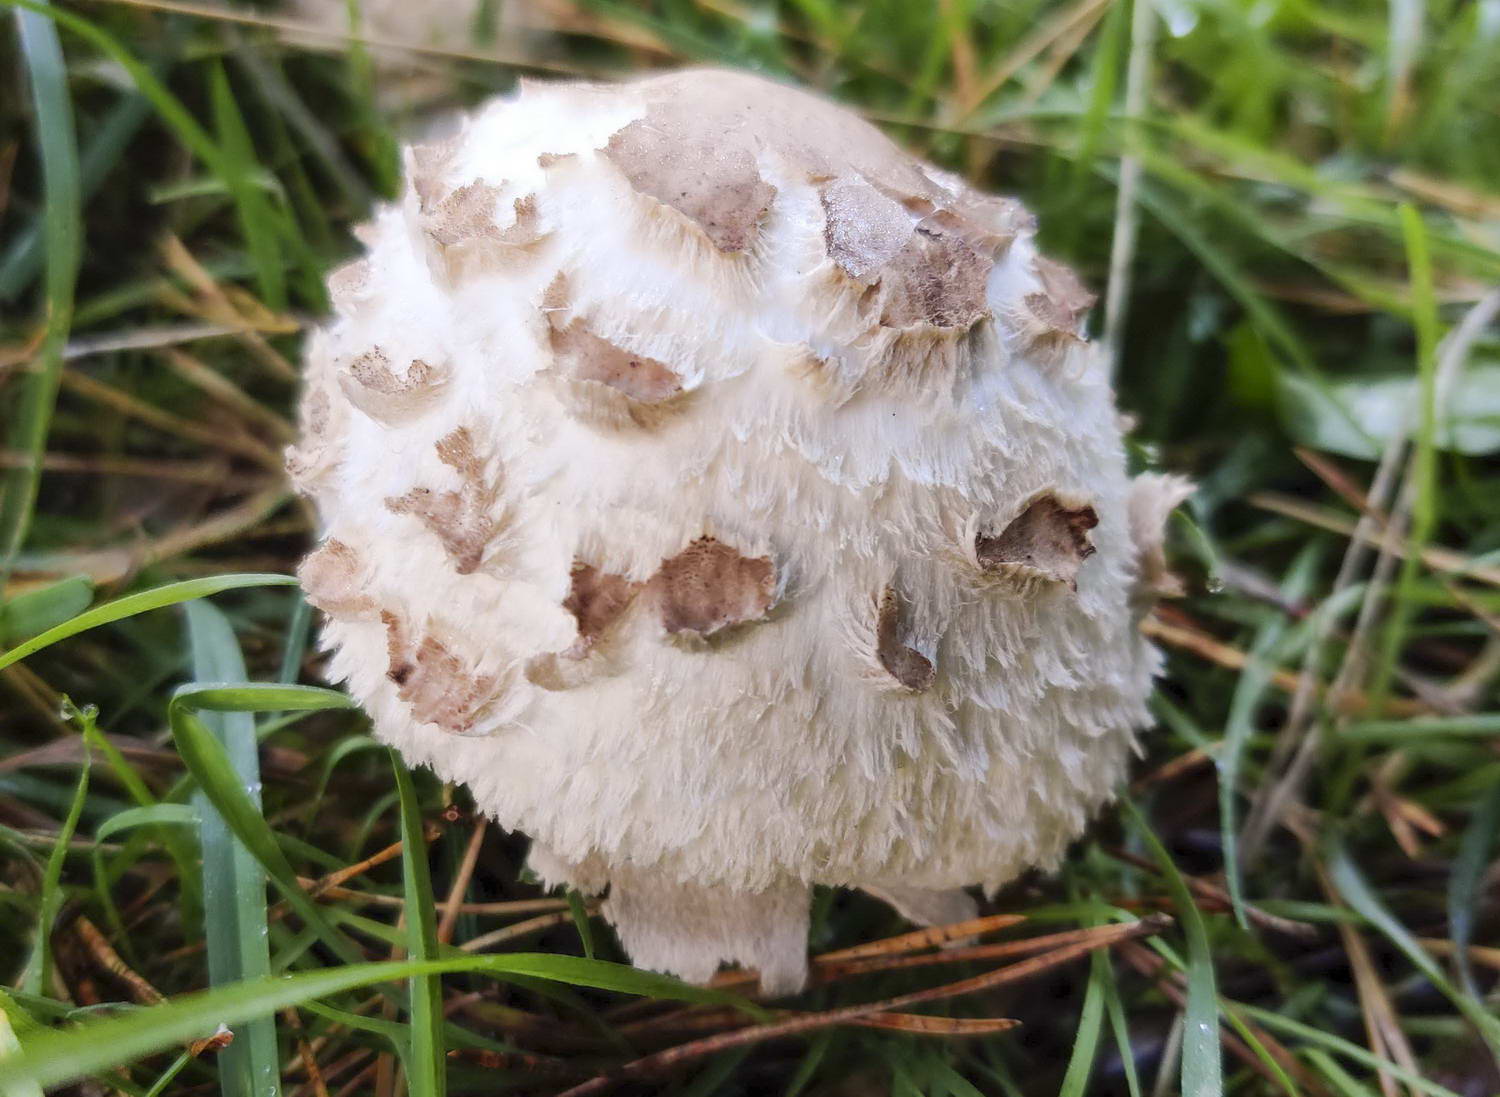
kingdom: Fungi
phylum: Basidiomycota
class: Agaricomycetes
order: Agaricales
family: Agaricaceae
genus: Chlorophyllum
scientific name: Chlorophyllum brunneum
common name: giftig rabarberhat
